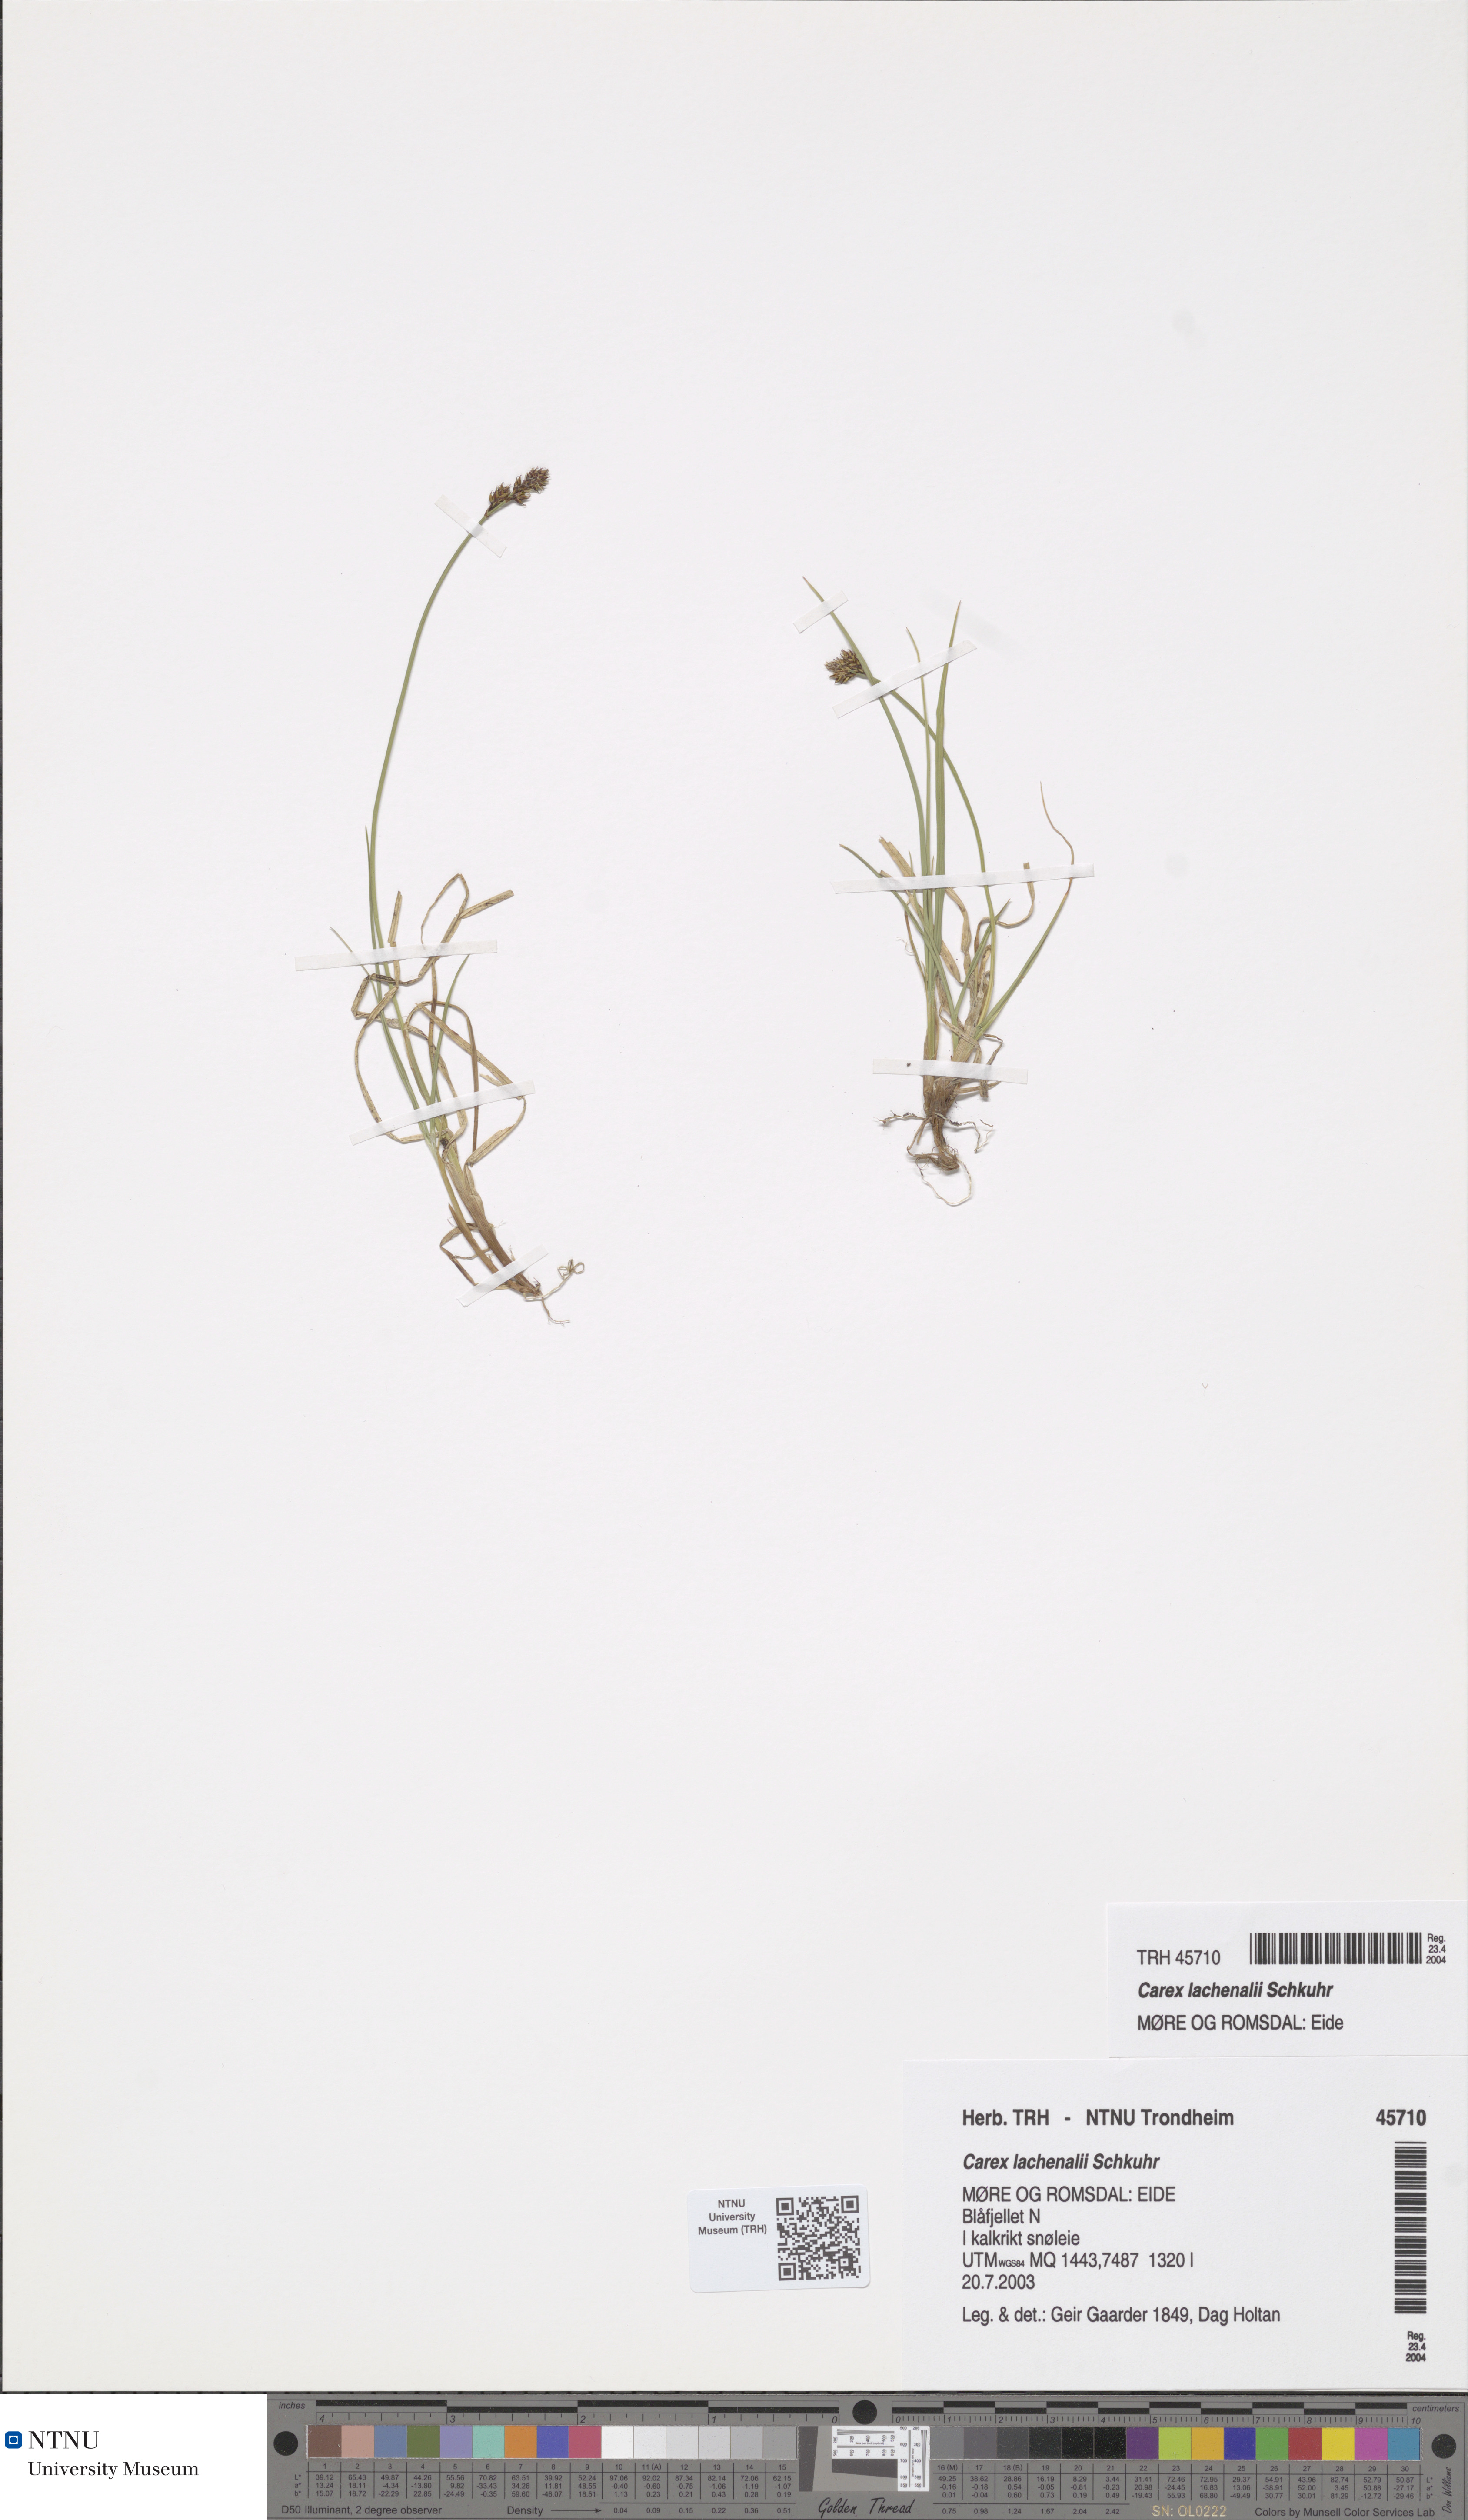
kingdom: Plantae
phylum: Tracheophyta
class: Liliopsida
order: Poales
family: Cyperaceae
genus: Carex
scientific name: Carex lachenalii
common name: Hare's-foot sedge
